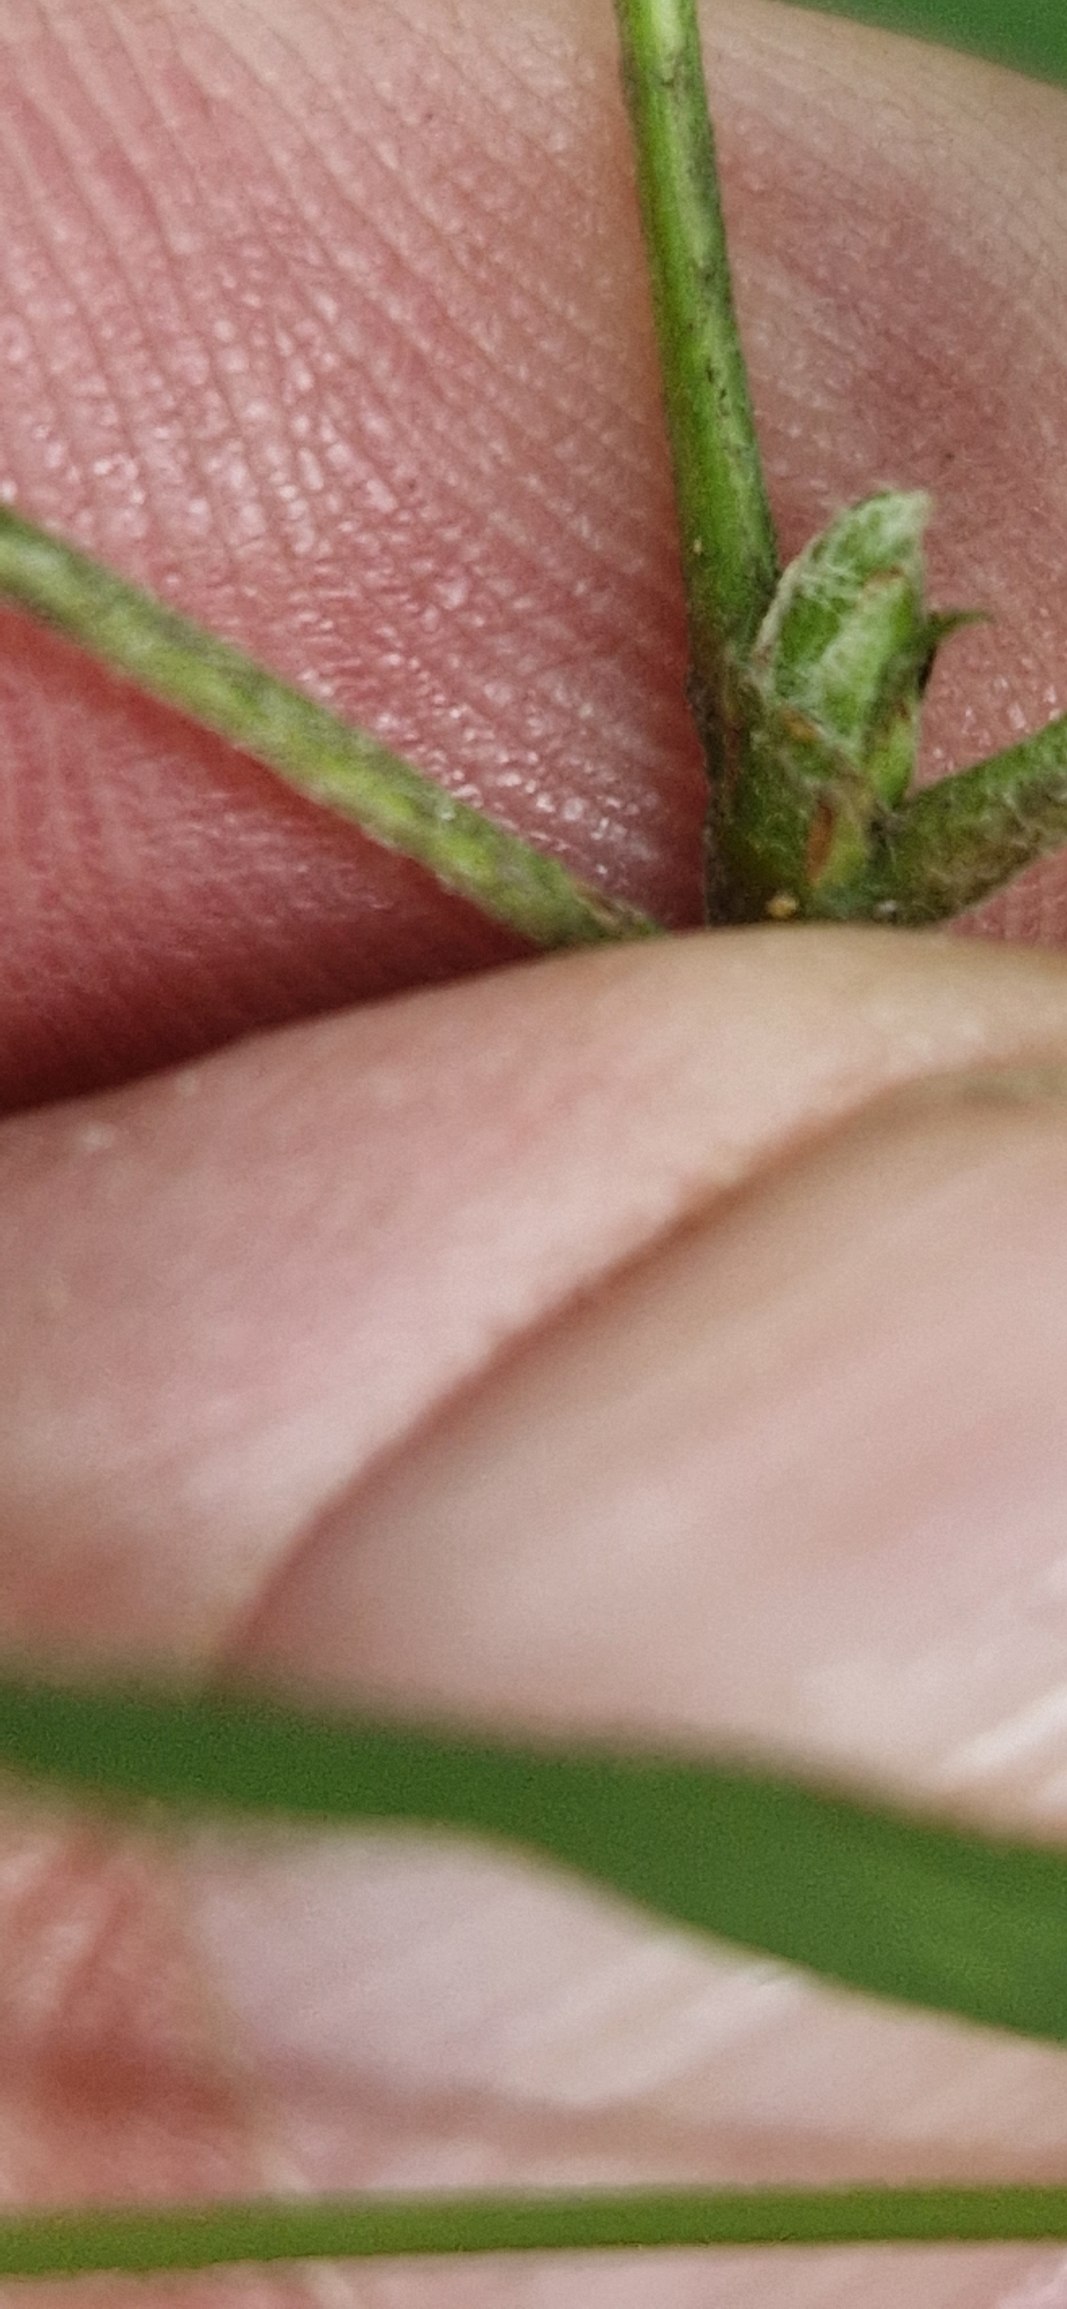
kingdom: Plantae
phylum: Tracheophyta
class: Magnoliopsida
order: Rosales
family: Rosaceae
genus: Scandosorbus
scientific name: Scandosorbus intermedia
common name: Selje-røn
